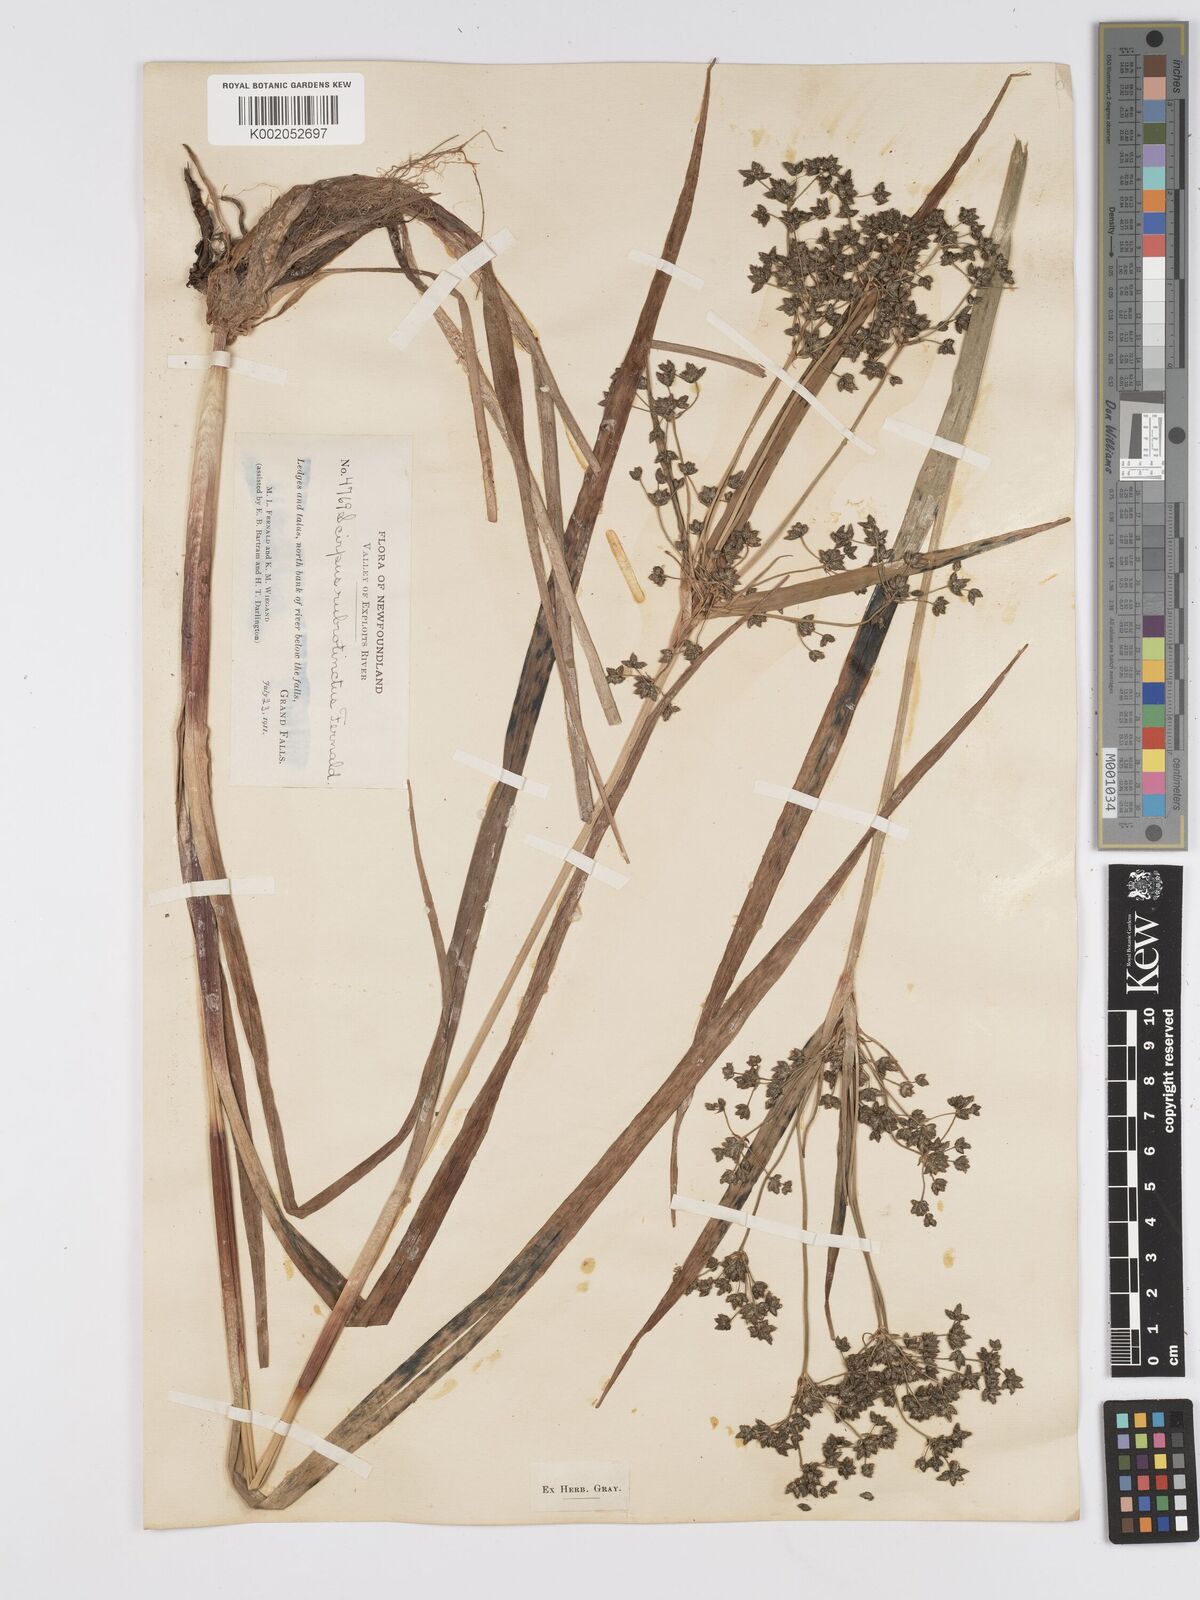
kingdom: Plantae
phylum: Tracheophyta
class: Liliopsida
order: Poales
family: Cyperaceae
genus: Scirpus
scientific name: Scirpus microcarpus
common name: Panicled bulrush
